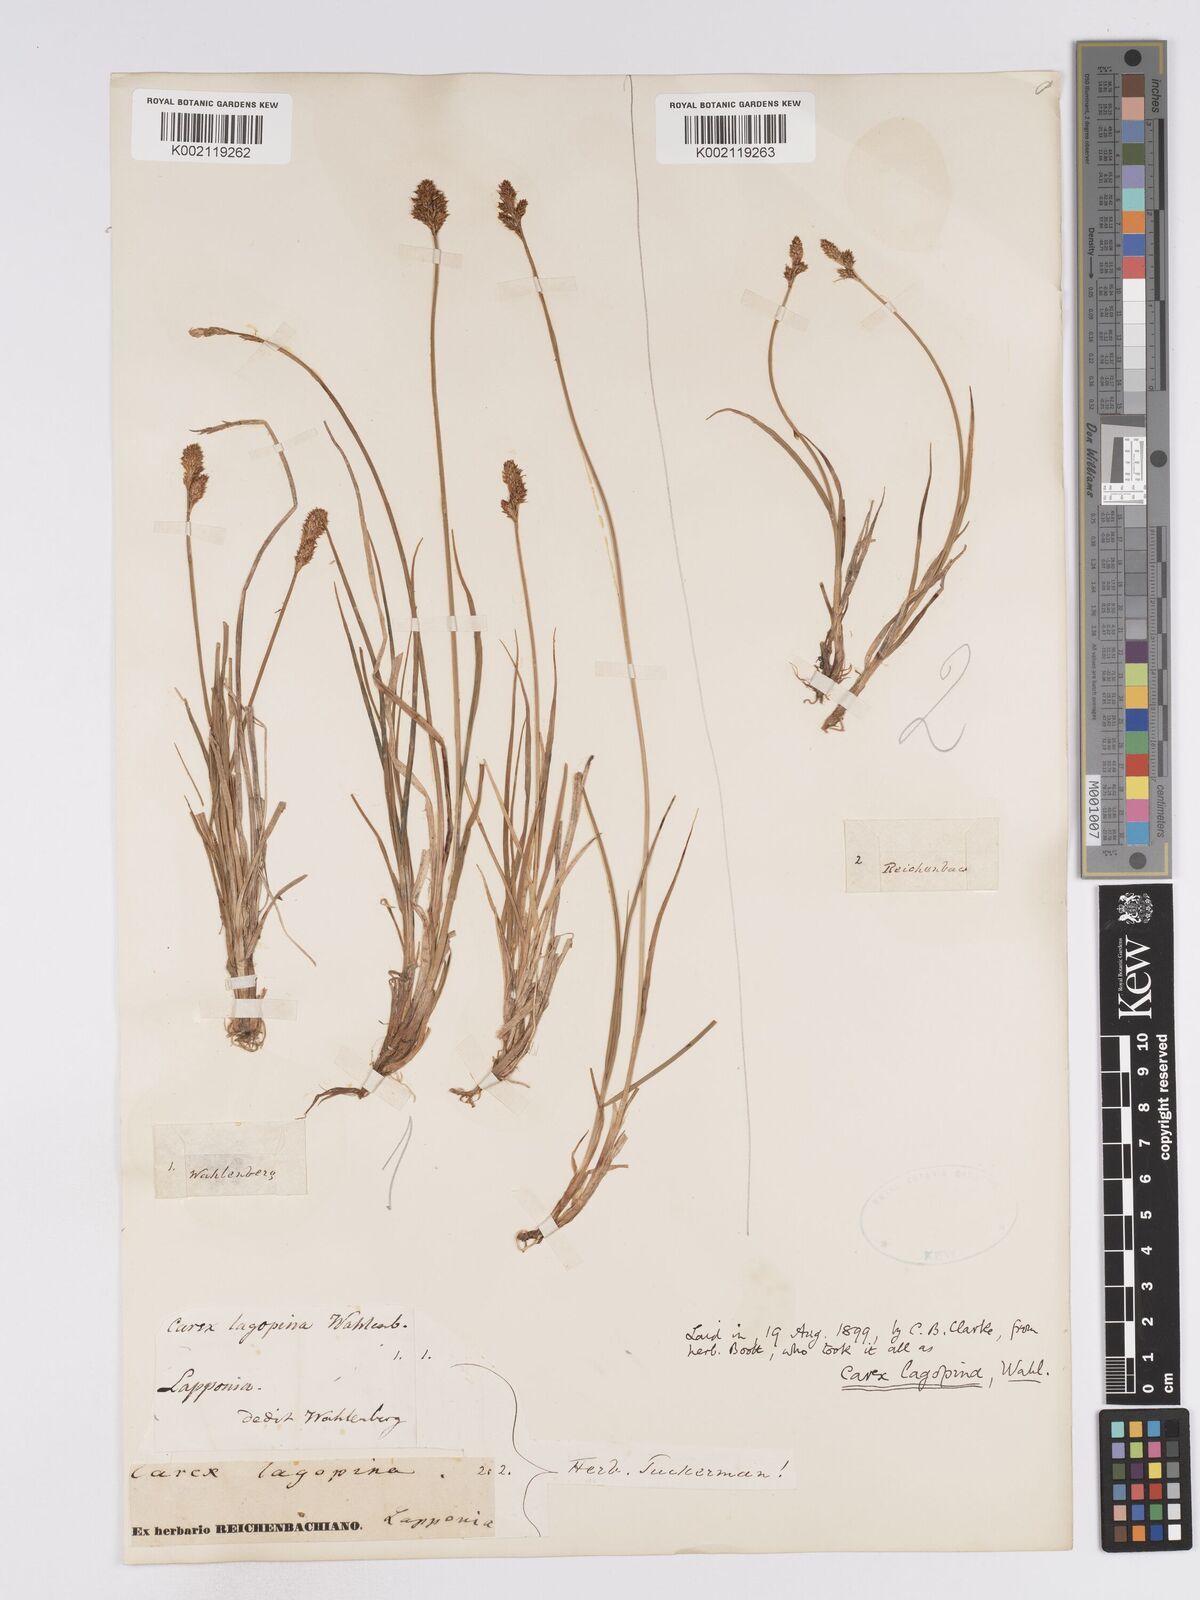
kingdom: Plantae
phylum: Tracheophyta
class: Liliopsida
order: Poales
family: Cyperaceae
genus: Carex
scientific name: Carex lachenalii
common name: Hare's-foot sedge
